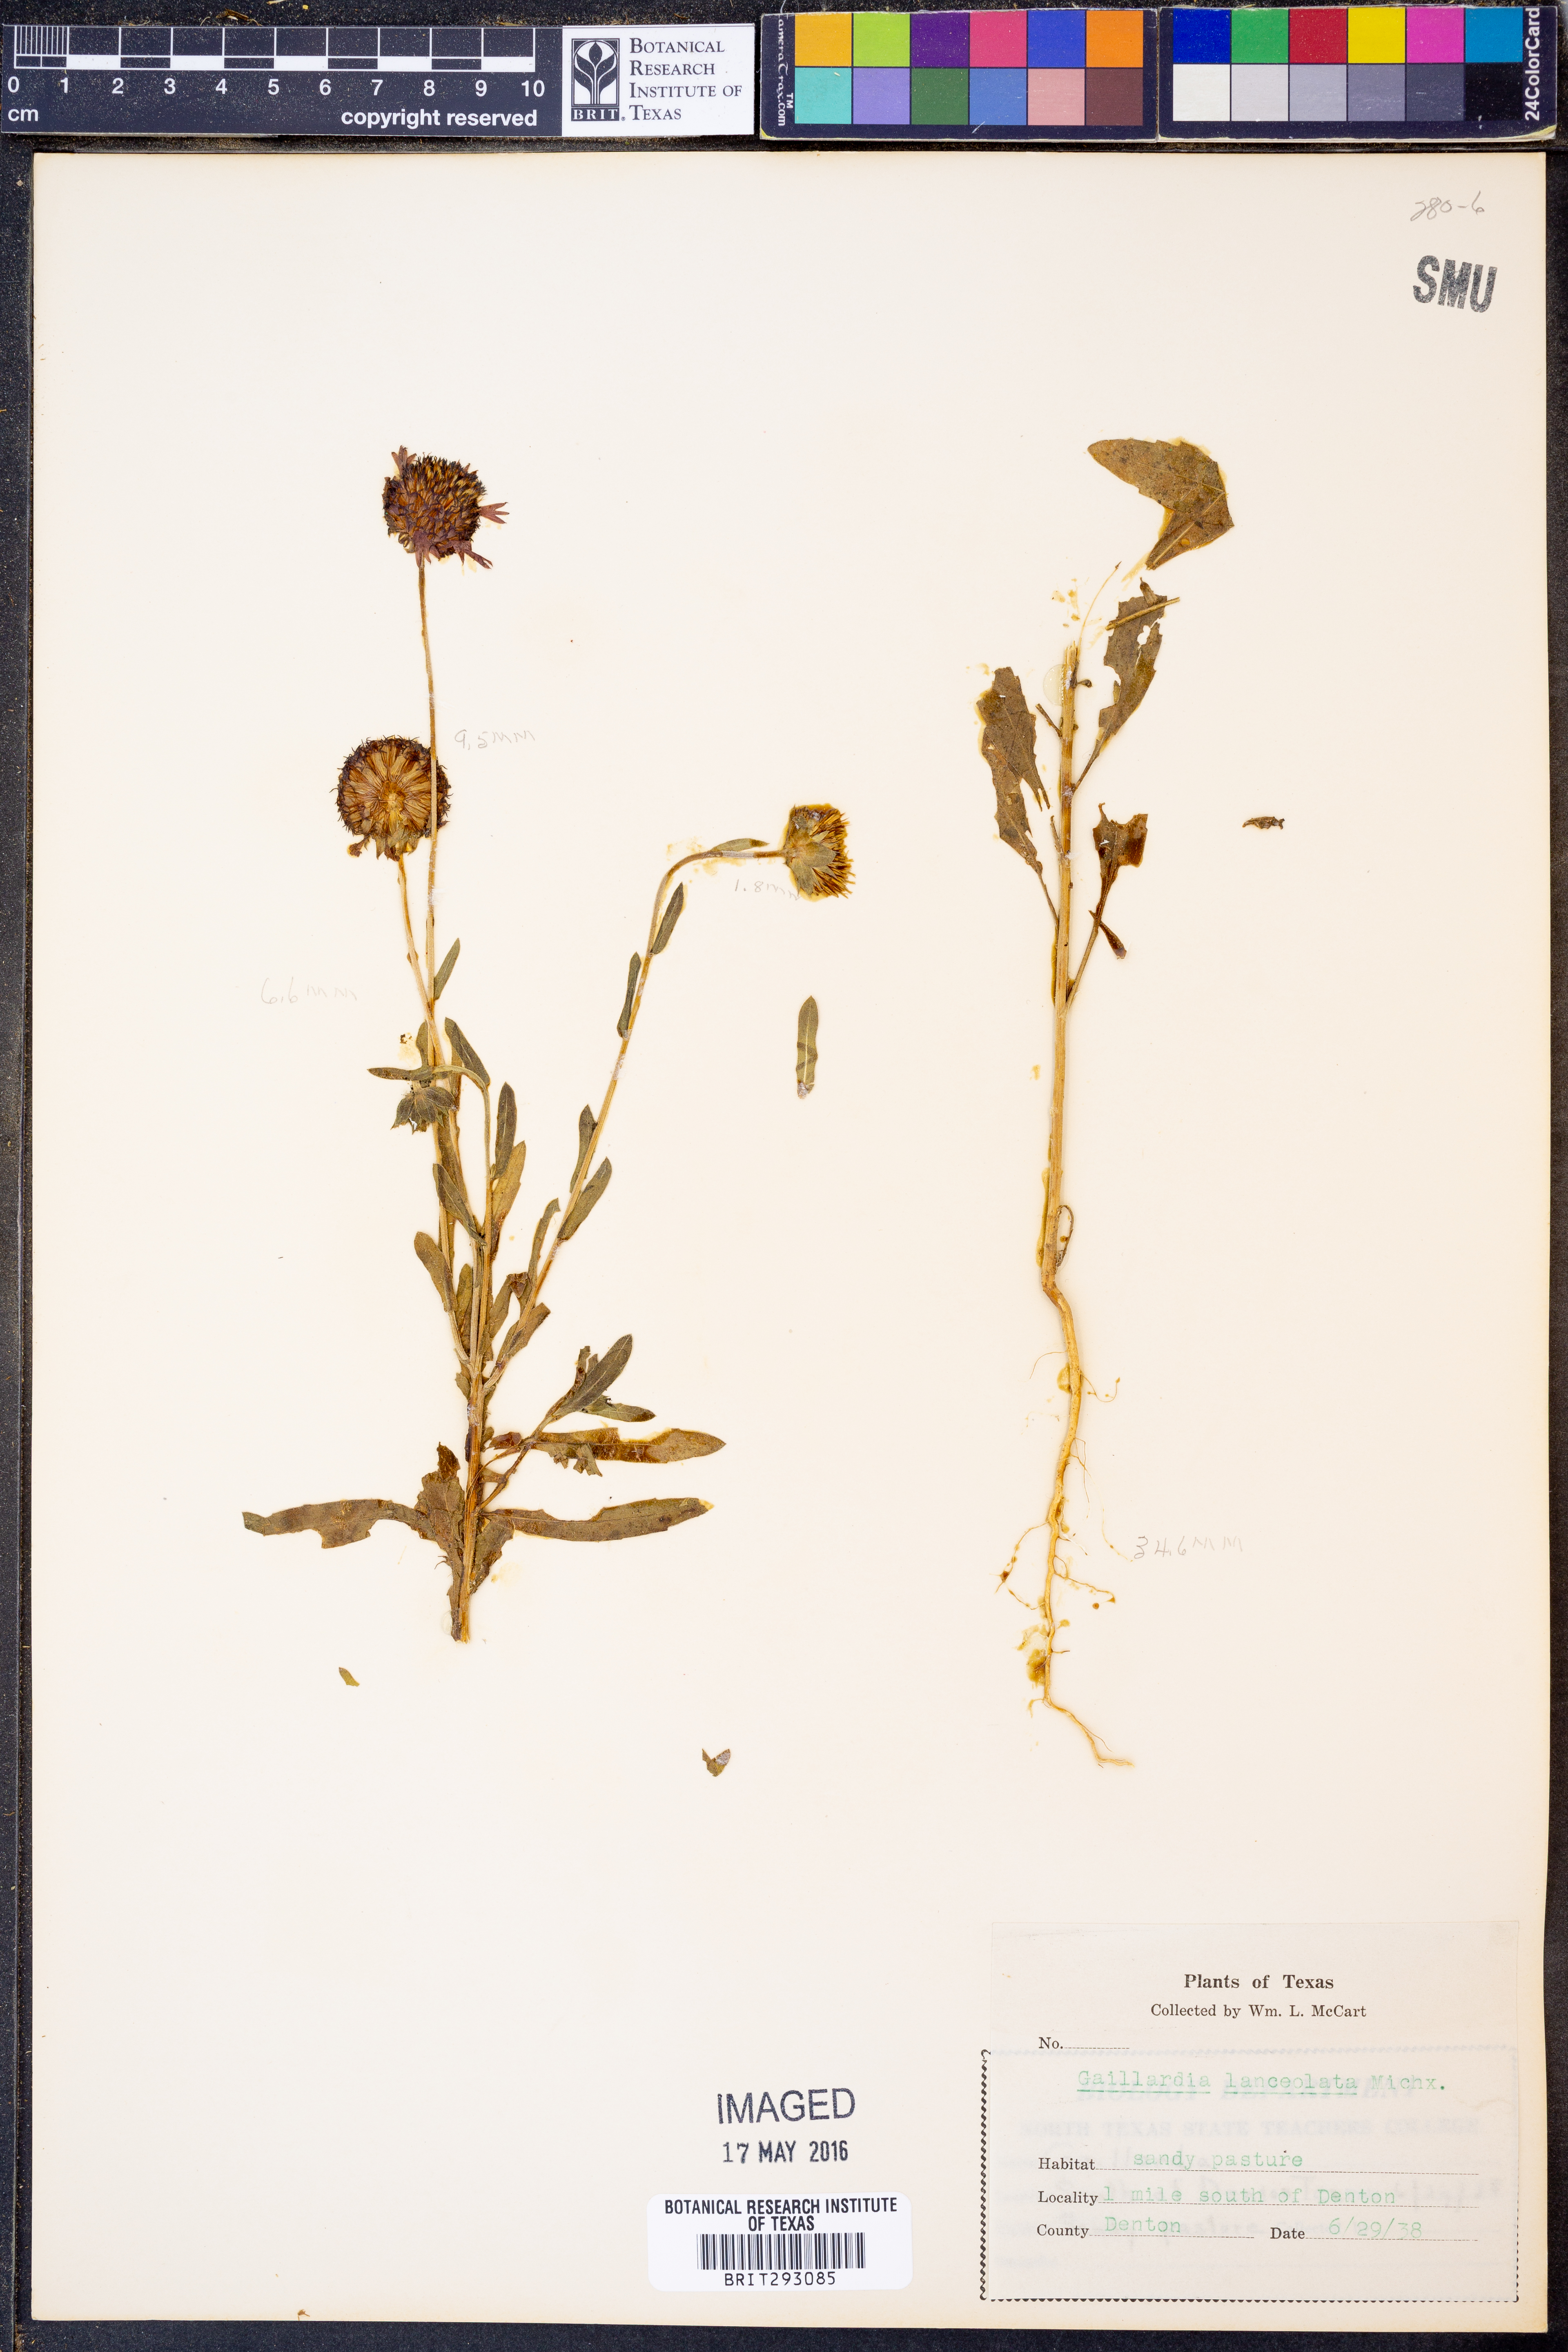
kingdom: Plantae
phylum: Tracheophyta
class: Magnoliopsida
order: Asterales
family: Asteraceae
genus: Gaillardia
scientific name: Gaillardia aestivalis
